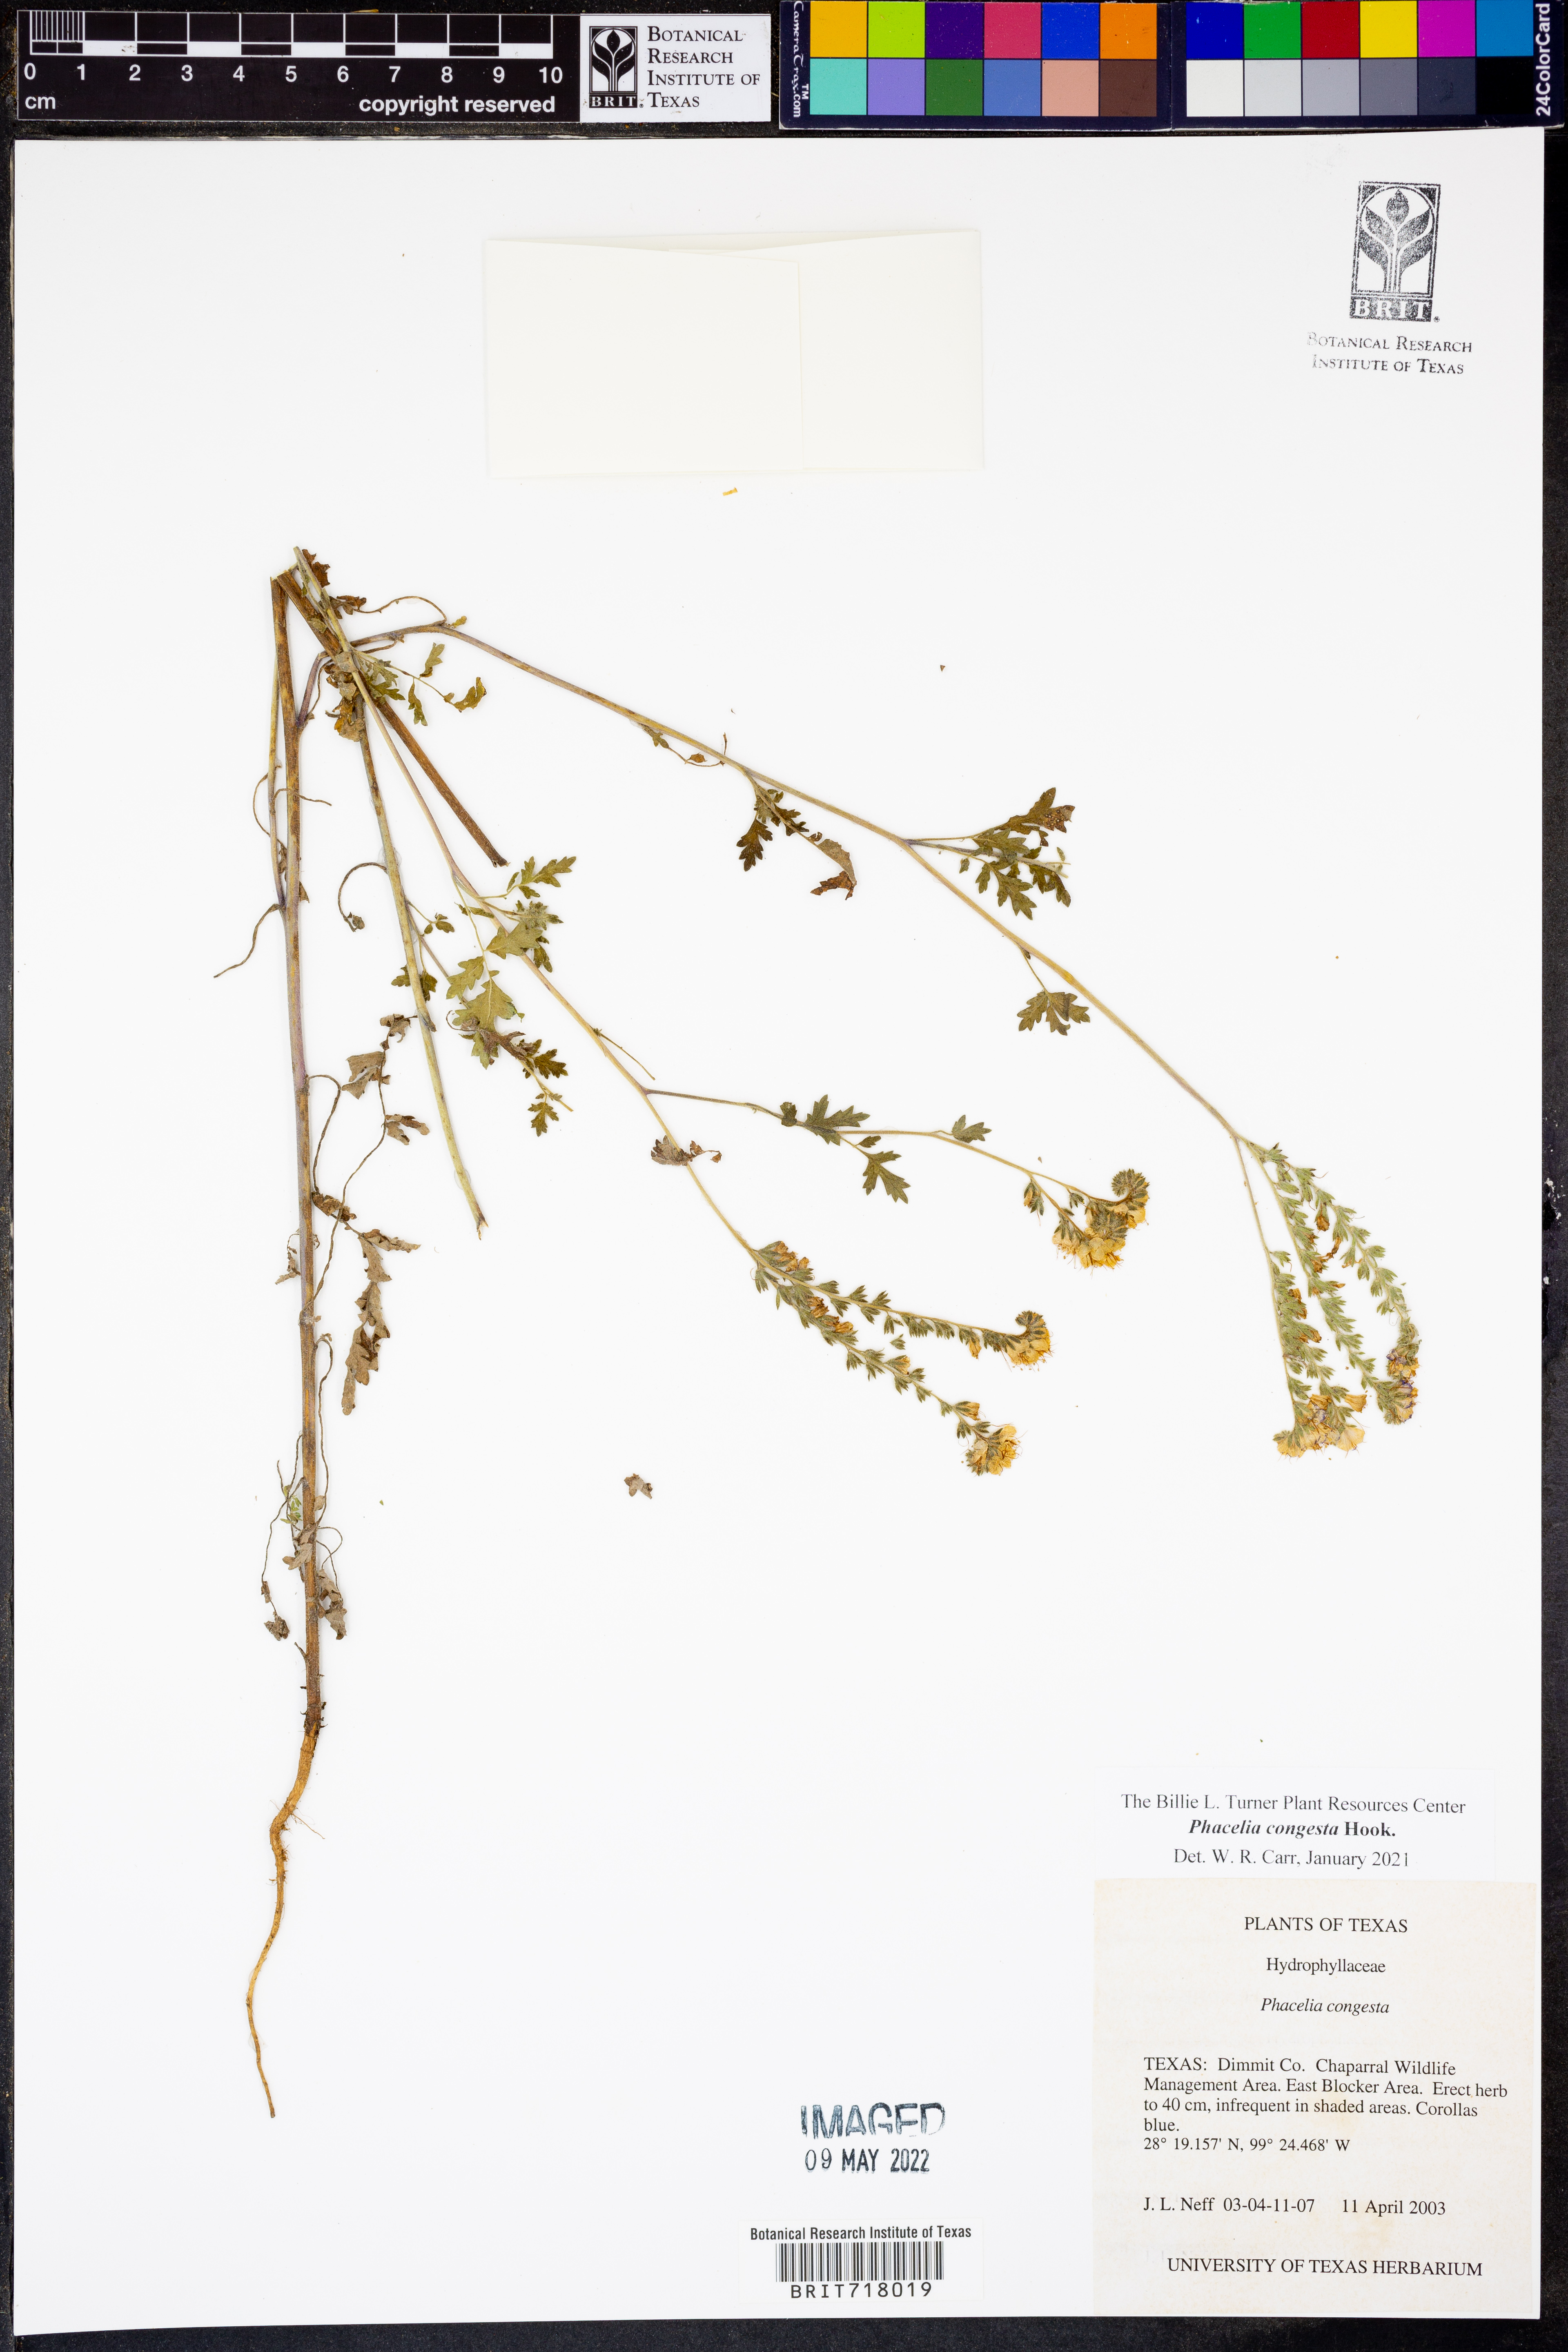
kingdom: Plantae
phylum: Tracheophyta
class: Magnoliopsida
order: Boraginales
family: Hydrophyllaceae
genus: Phacelia
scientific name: Phacelia congesta
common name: Blue curls
